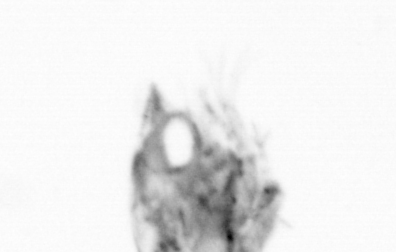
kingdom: Animalia
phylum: Arthropoda
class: Copepoda
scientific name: Copepoda
